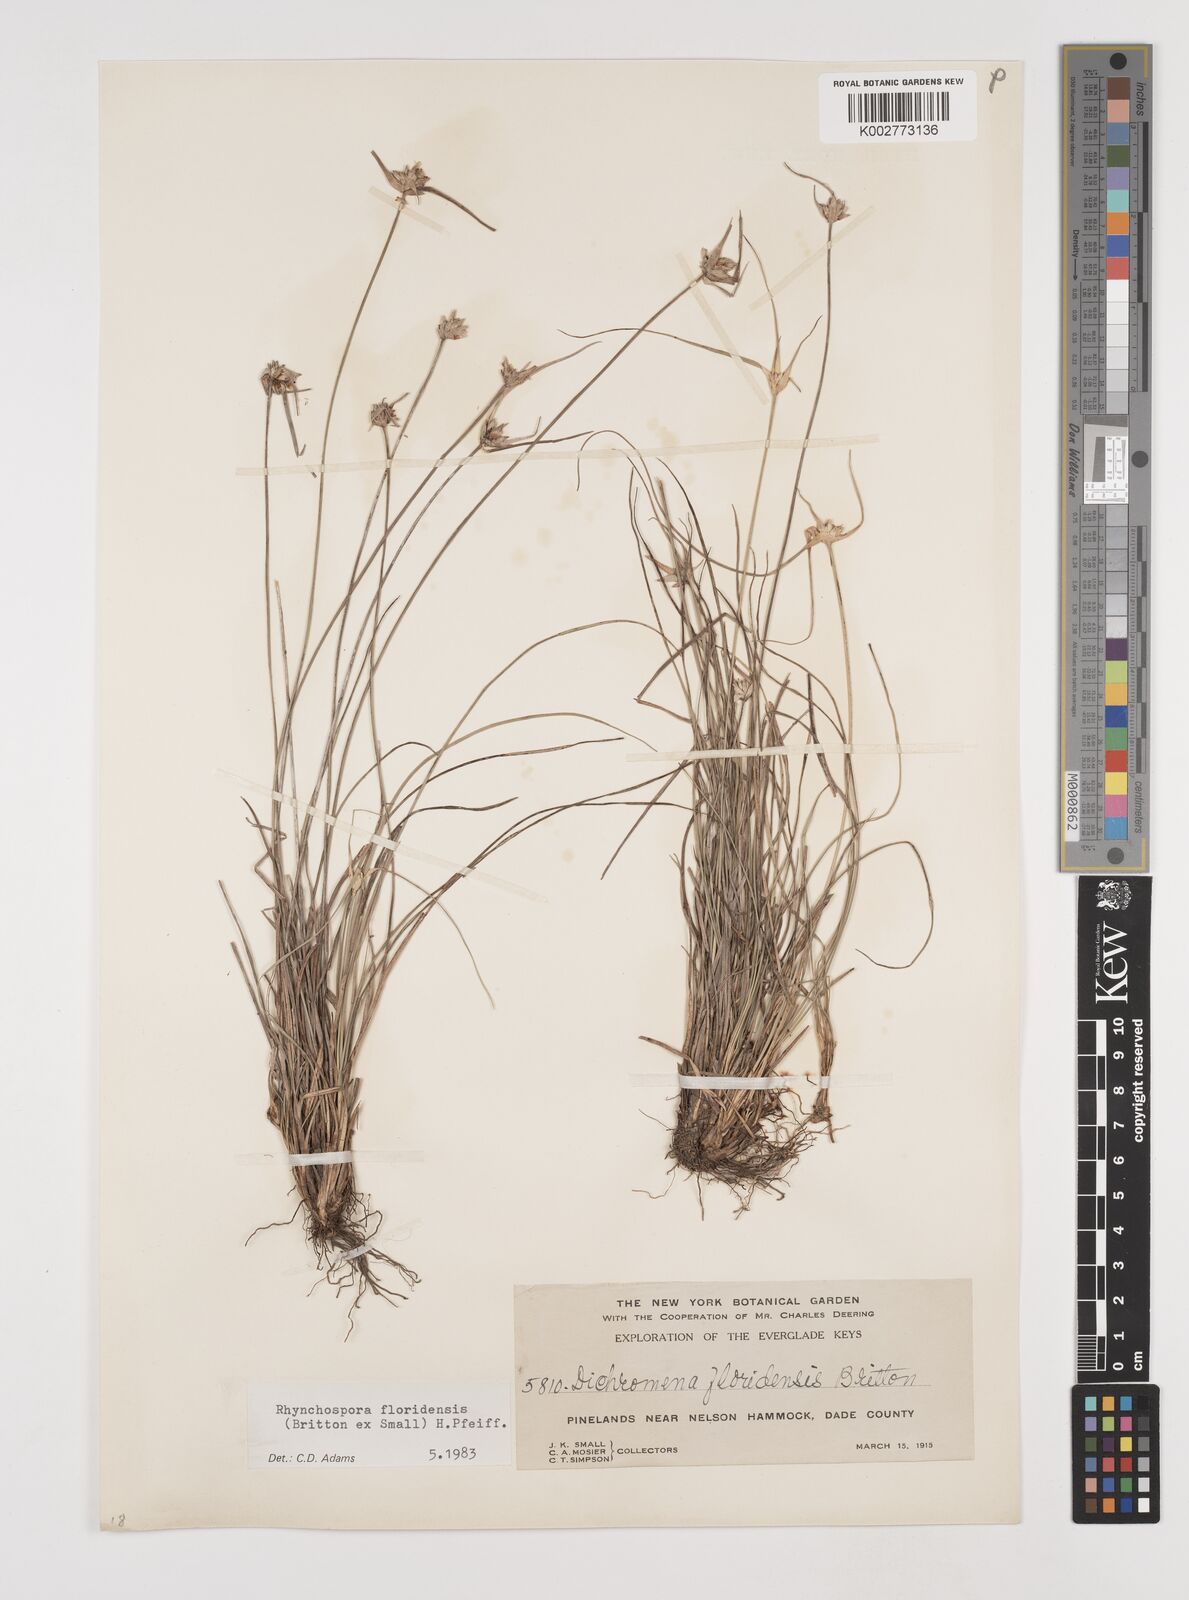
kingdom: Plantae
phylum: Tracheophyta
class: Liliopsida
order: Poales
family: Cyperaceae
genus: Rhynchospora
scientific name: Rhynchospora floridensis
